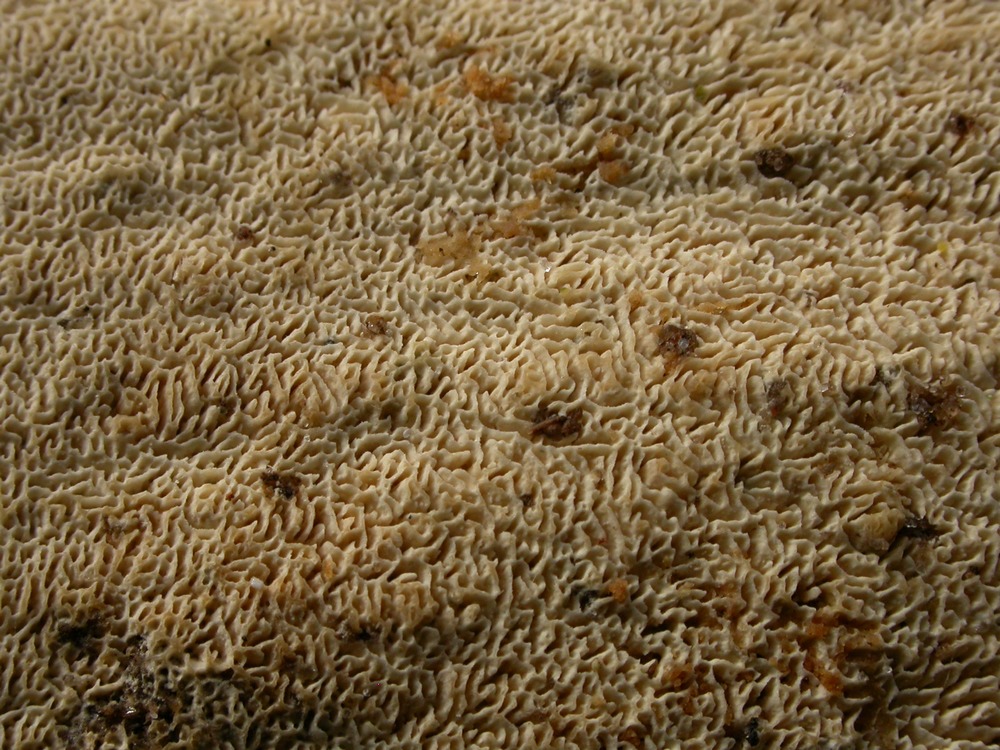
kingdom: Fungi
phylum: Basidiomycota
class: Agaricomycetes
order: Hymenochaetales
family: Schizoporaceae
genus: Xylodon
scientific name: Xylodon subtropicus
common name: labyrint-tandsvamp
